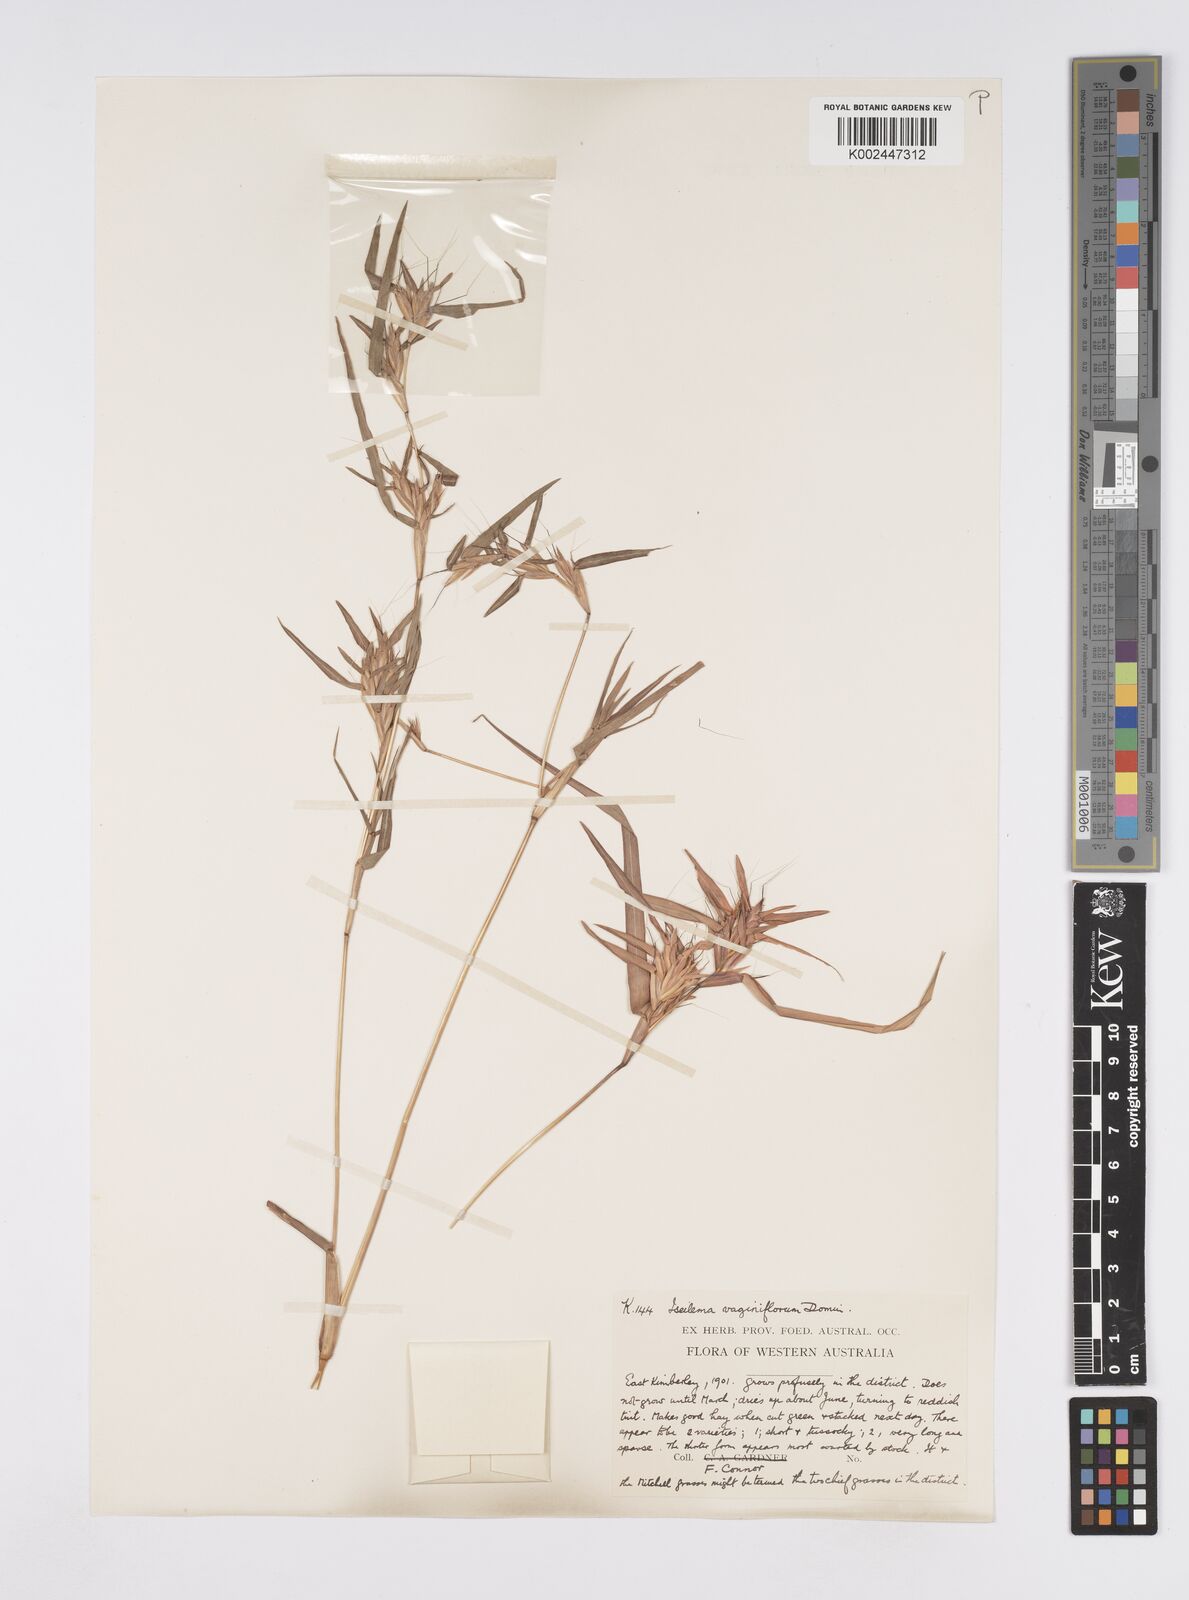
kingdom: Plantae
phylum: Tracheophyta
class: Liliopsida
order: Poales
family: Poaceae
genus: Iseilema
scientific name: Iseilema vaginiflorum
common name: Red flinders grass
